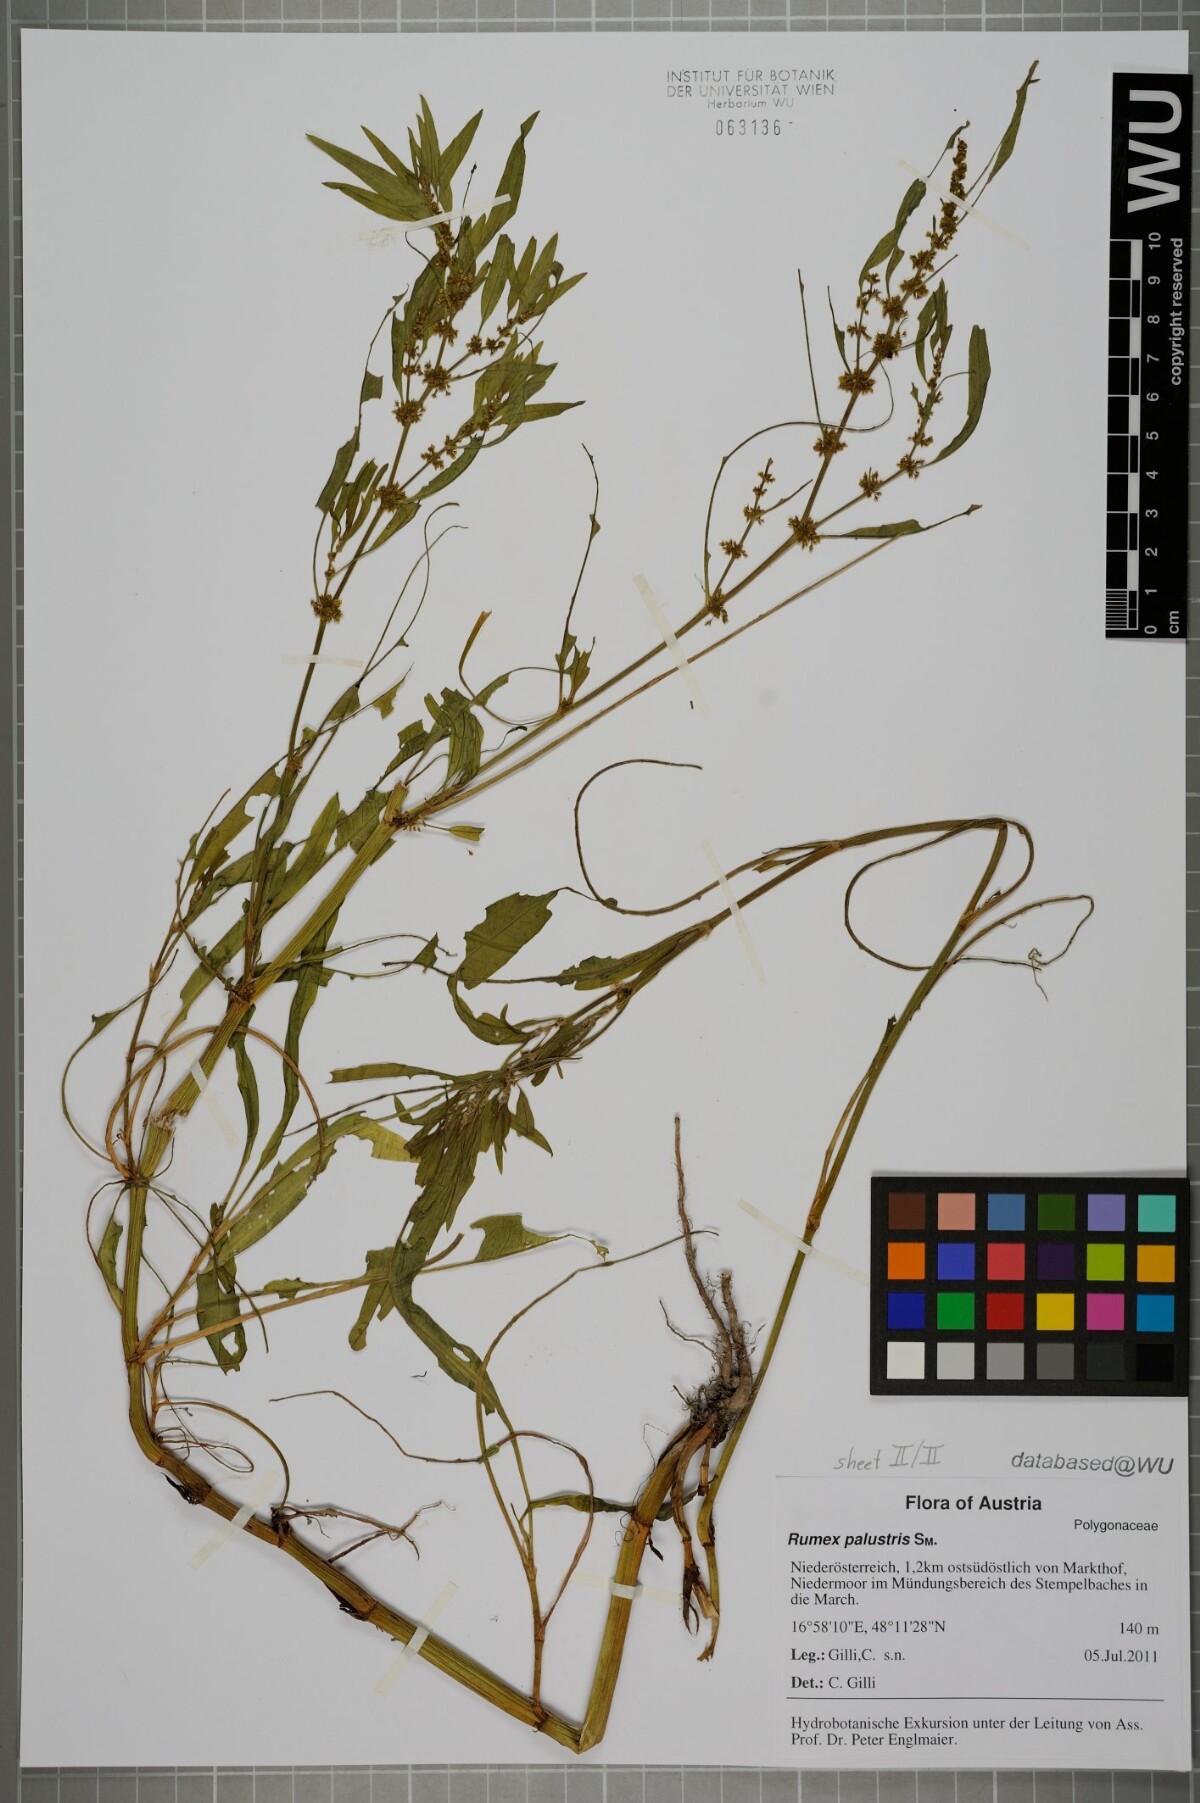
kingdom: Plantae
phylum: Tracheophyta
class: Magnoliopsida
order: Caryophyllales
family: Polygonaceae
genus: Rumex
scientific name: Rumex maritimus
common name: Golden dock
